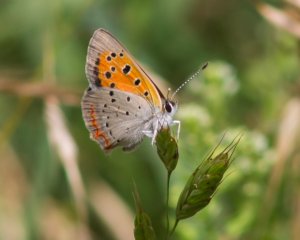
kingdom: Animalia
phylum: Arthropoda
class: Insecta
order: Lepidoptera
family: Lycaenidae
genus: Lycaena
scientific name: Lycaena phlaeas
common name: American Copper
